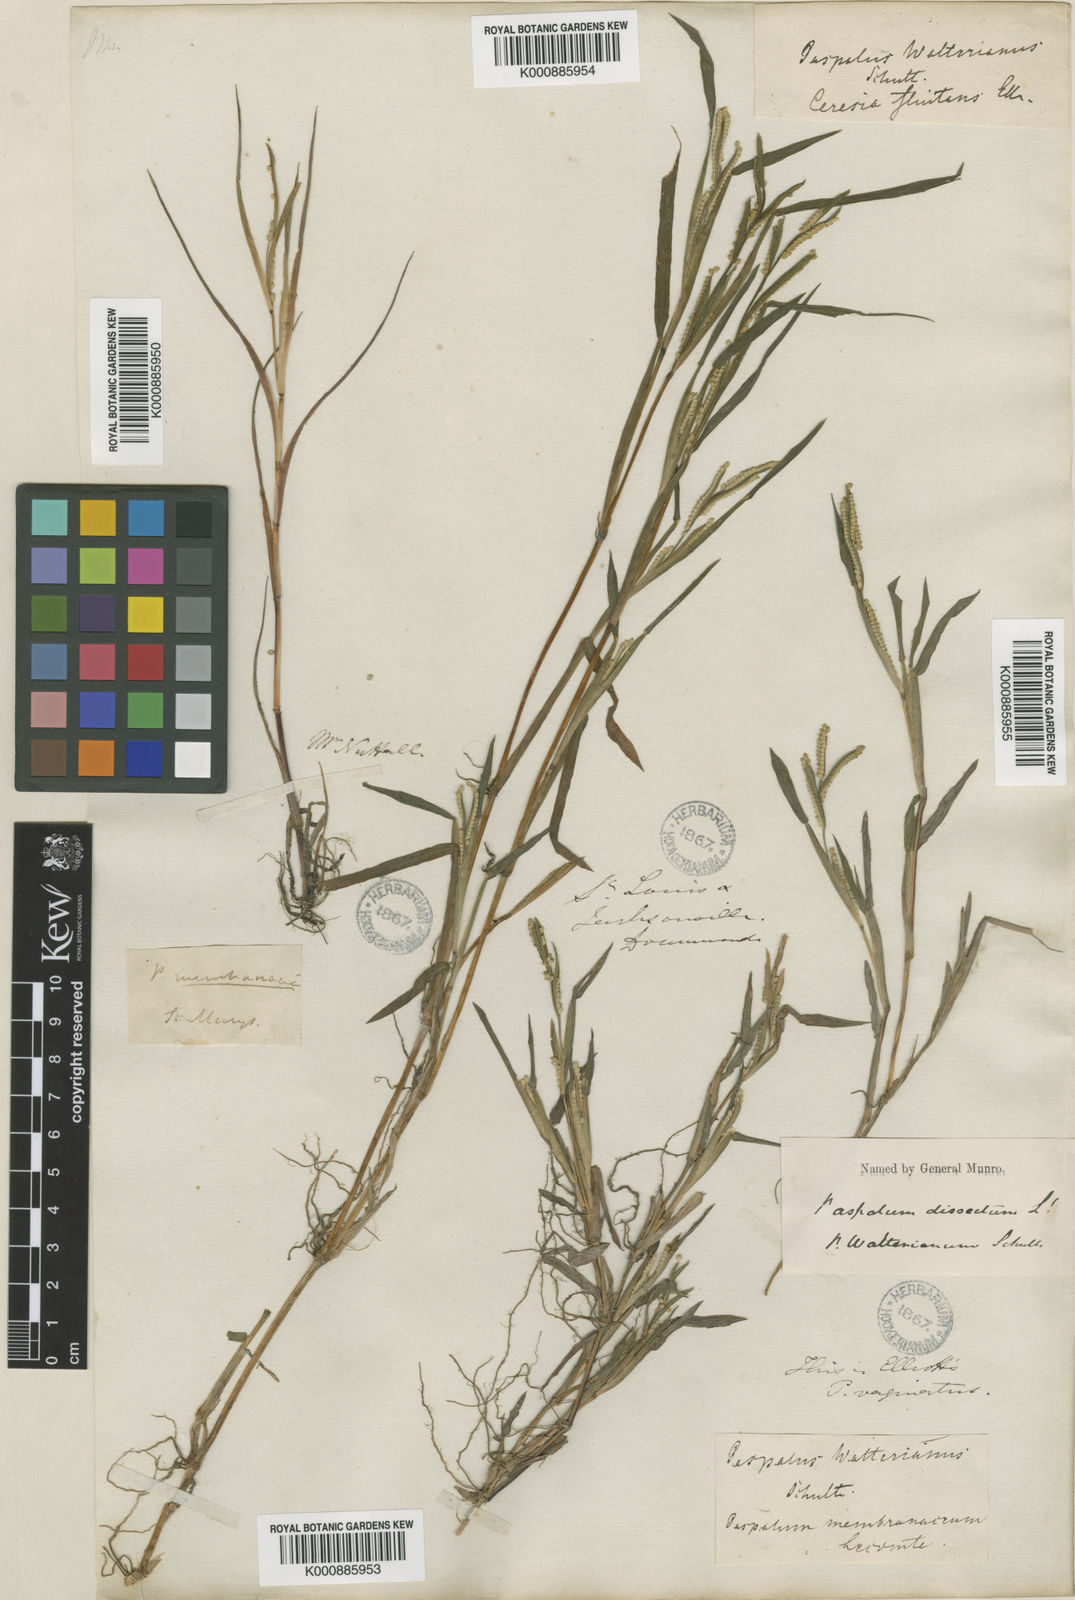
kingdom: Plantae
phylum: Tracheophyta
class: Liliopsida
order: Poales
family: Poaceae
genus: Paspalum
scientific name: Paspalum dissectum
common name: Bead grass
